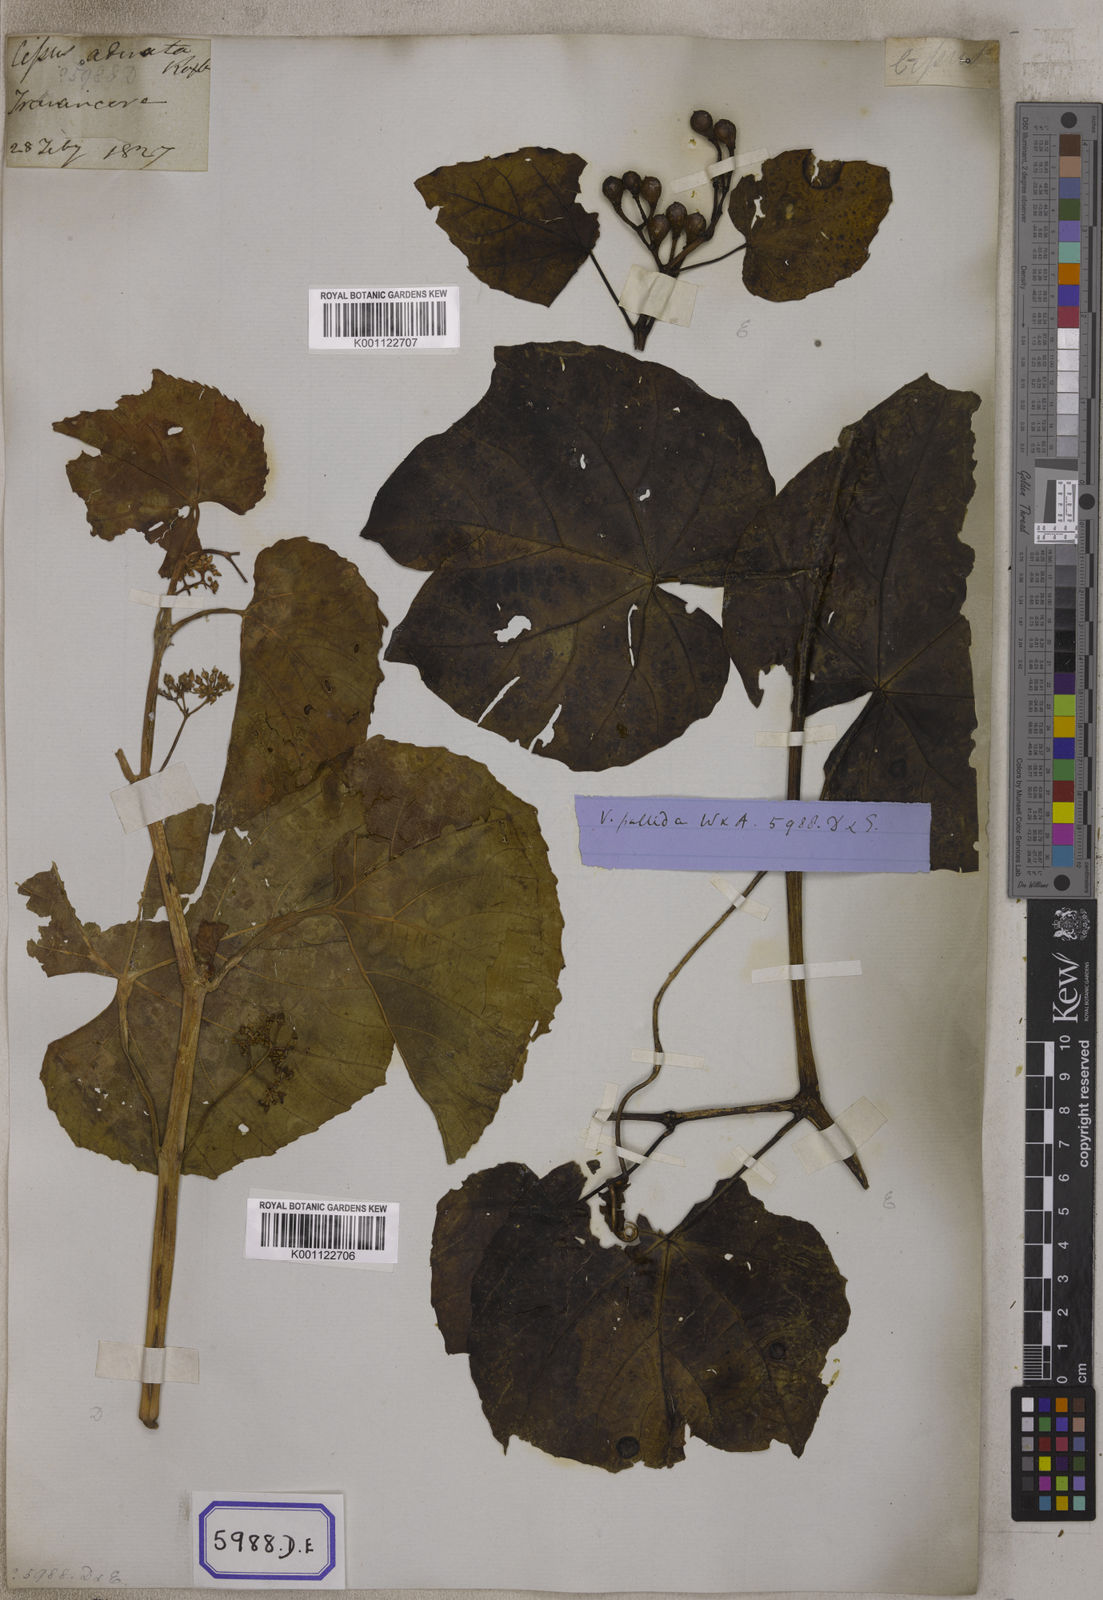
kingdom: Plantae
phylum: Tracheophyta
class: Magnoliopsida
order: Vitales
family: Vitaceae
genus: Vitis
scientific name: Vitis
